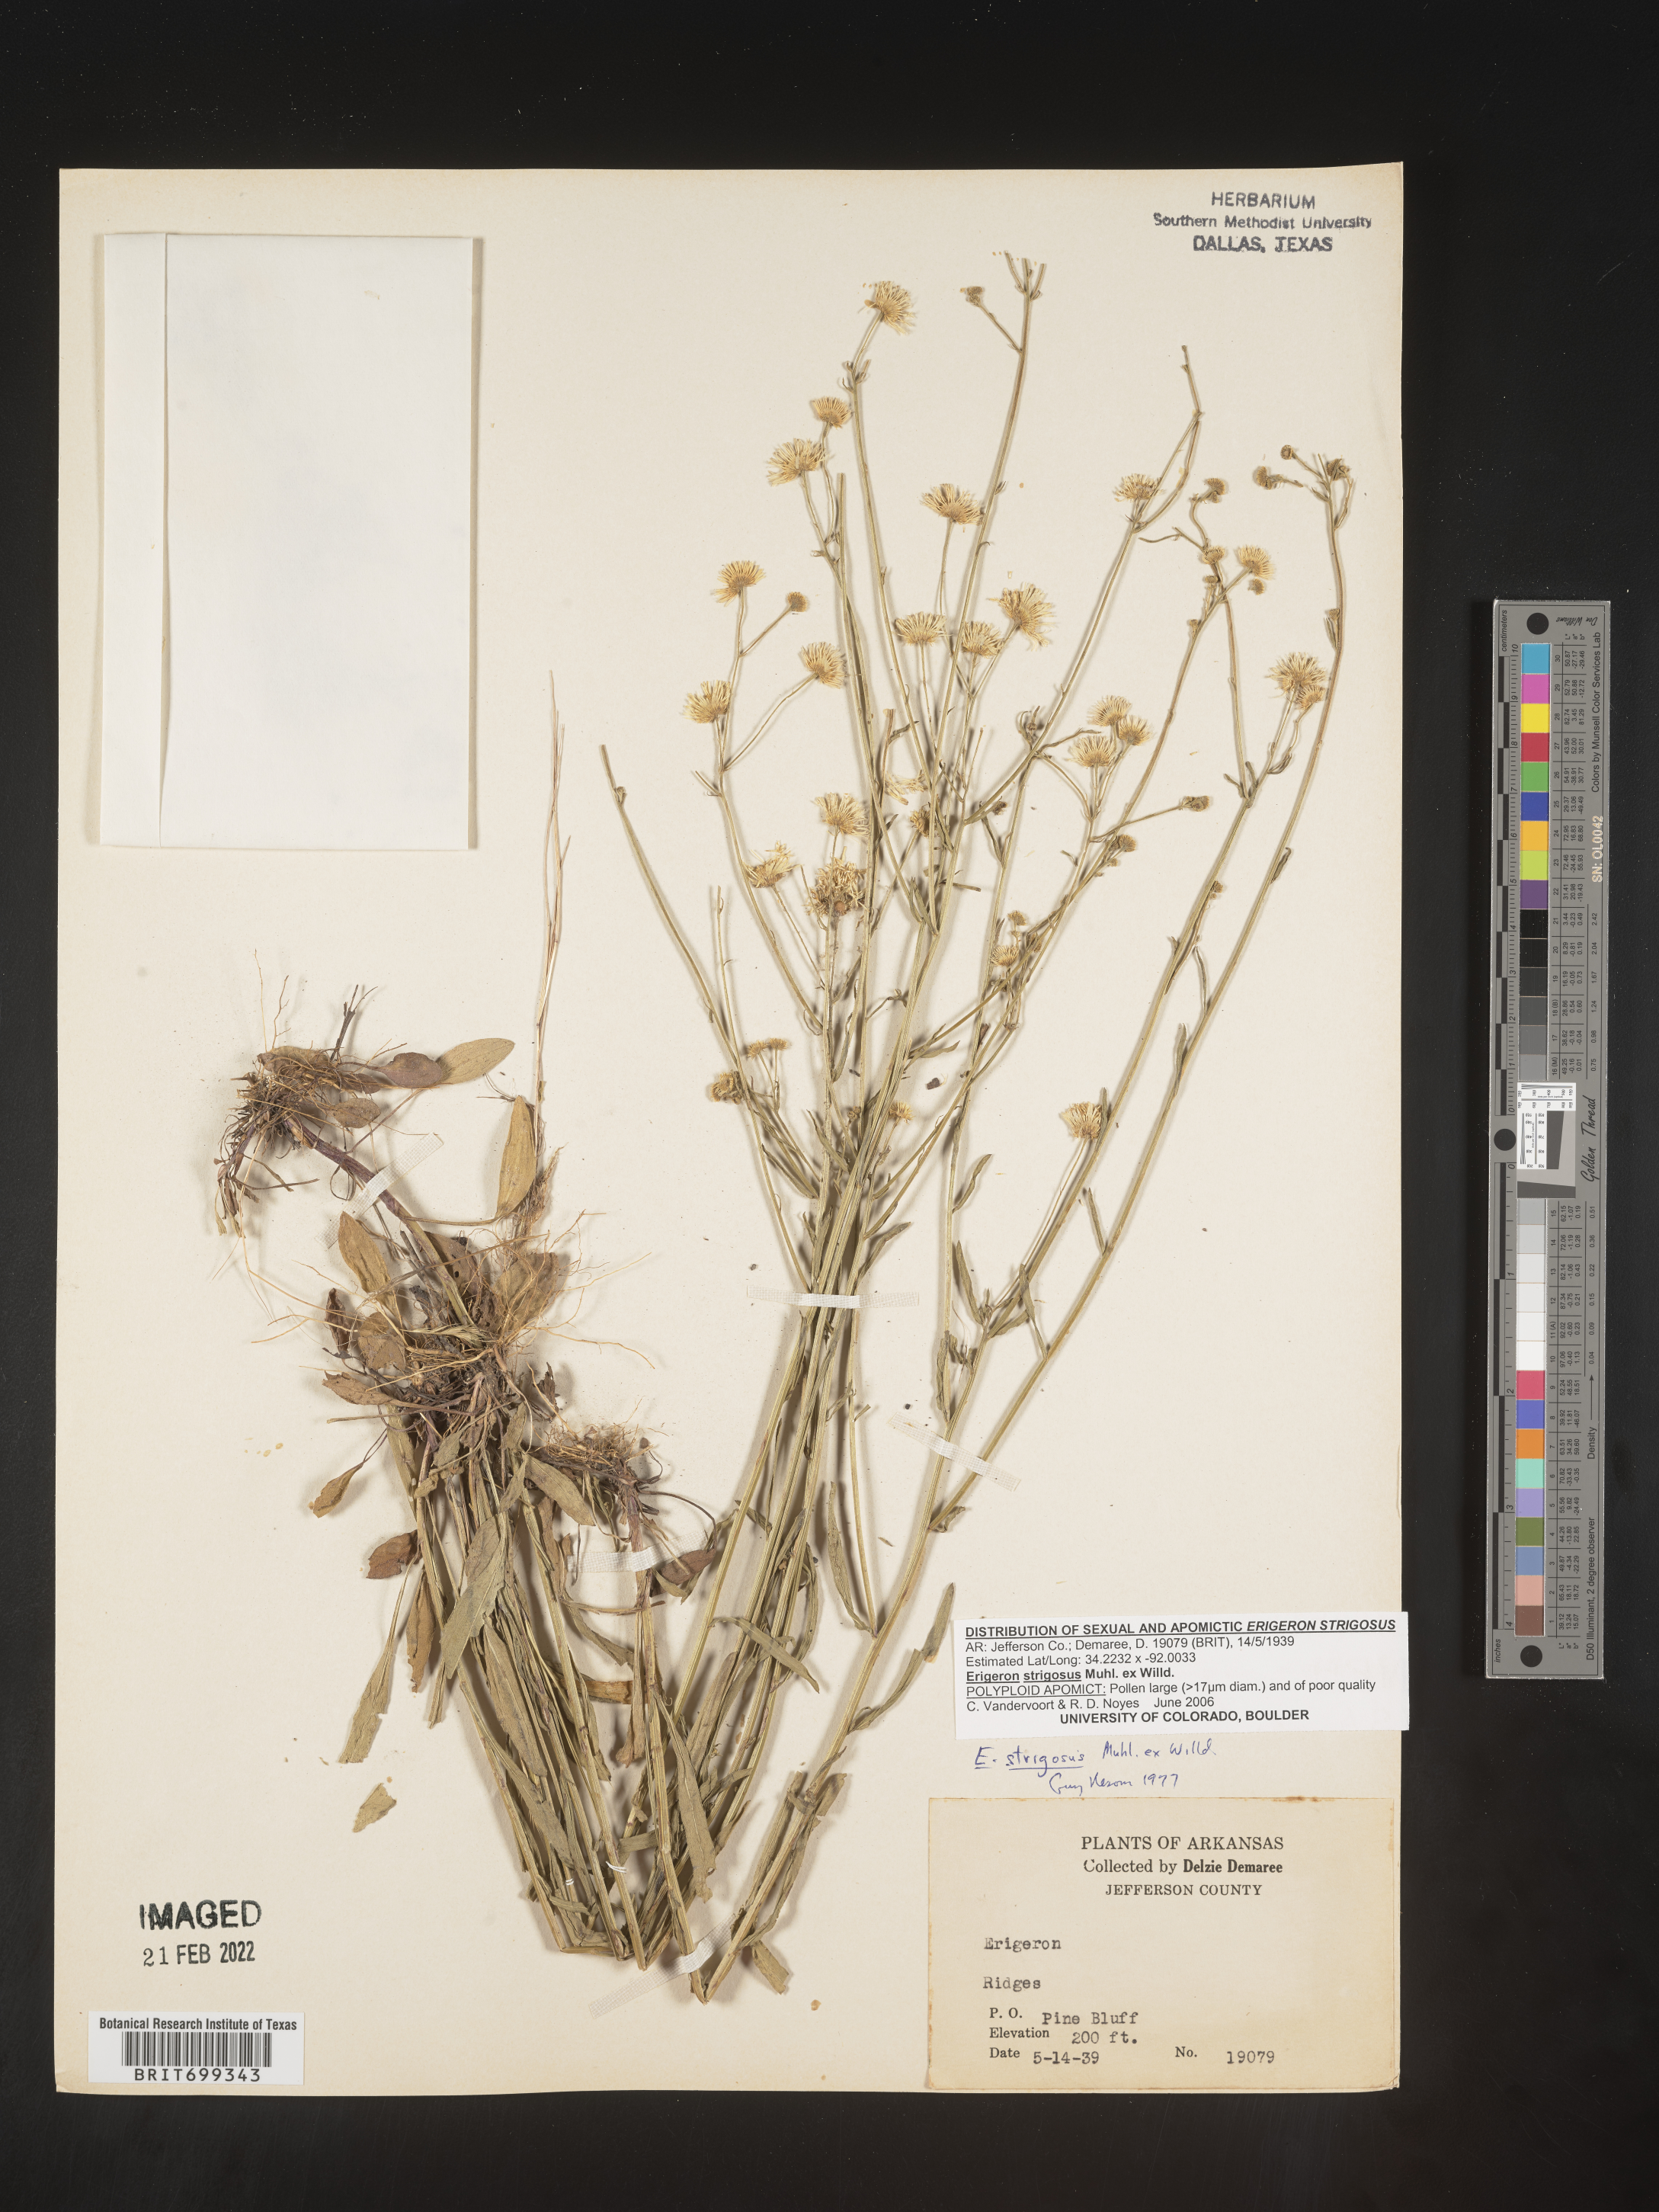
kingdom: Plantae
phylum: Tracheophyta
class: Magnoliopsida
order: Asterales
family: Asteraceae
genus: Erigeron
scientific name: Erigeron strigosus
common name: Common eastern fleabane
